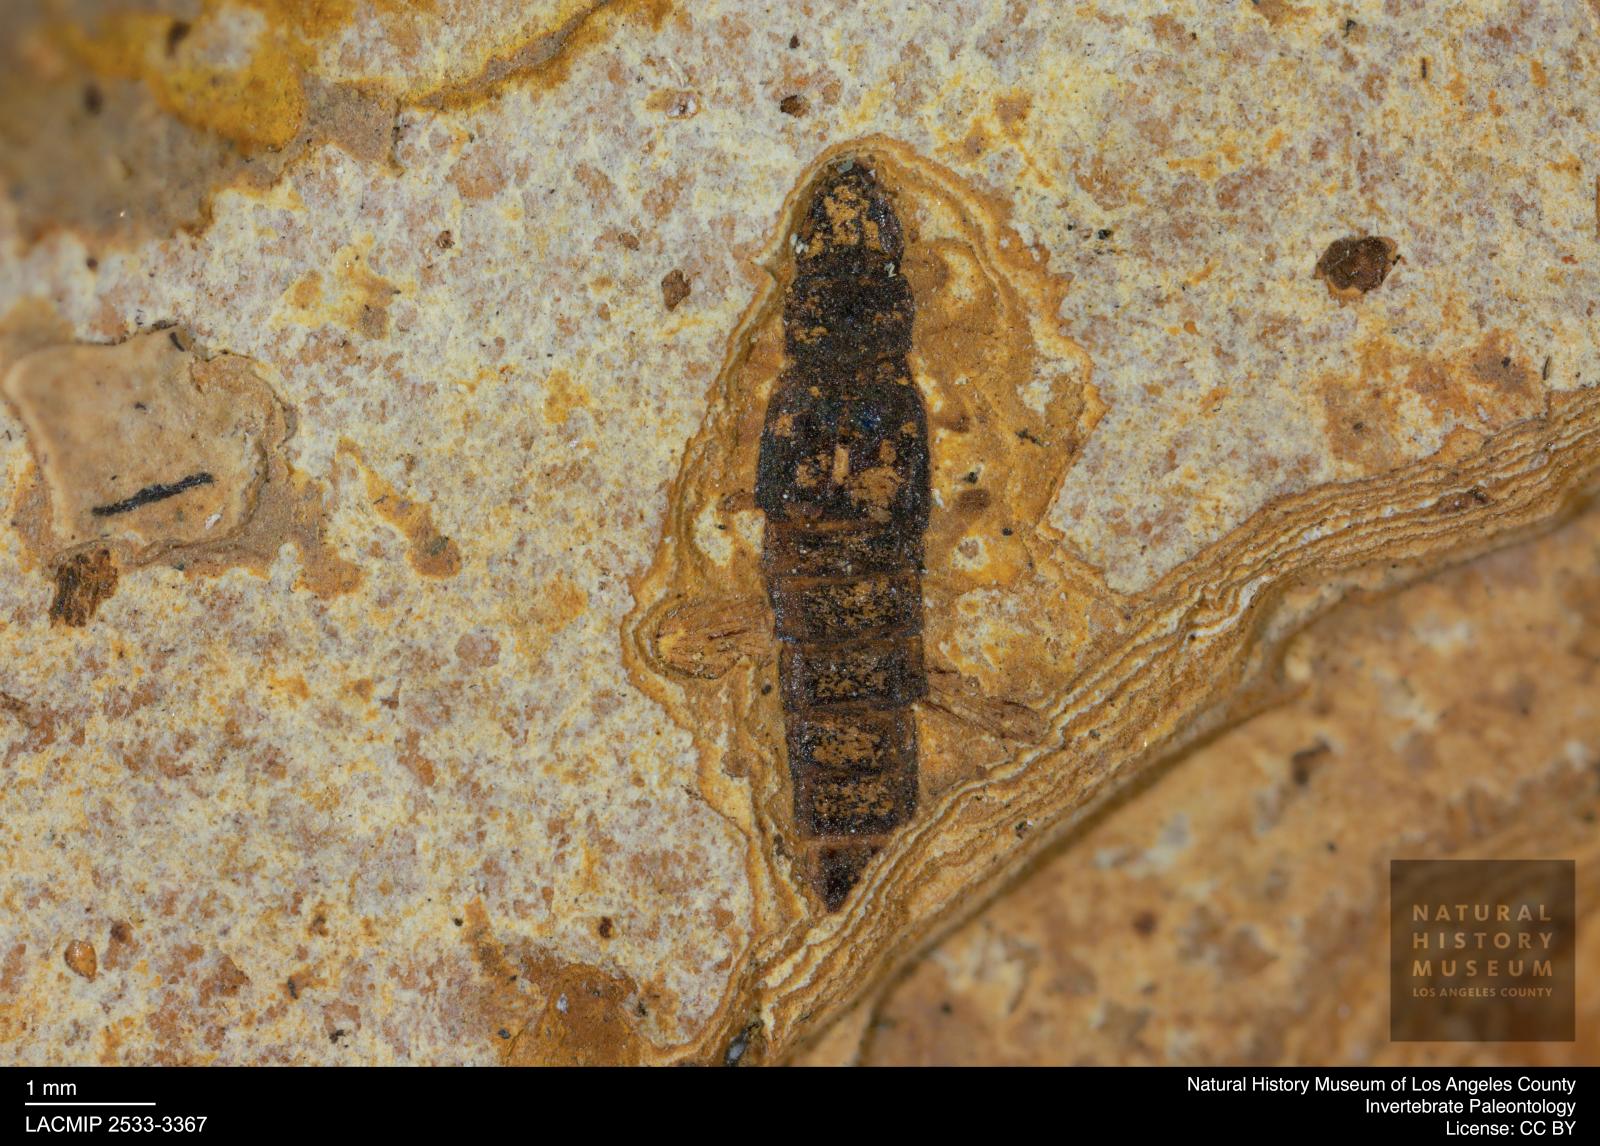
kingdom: Animalia
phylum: Arthropoda
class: Insecta
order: Coleoptera
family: Staphylinidae
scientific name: Staphylinidae
